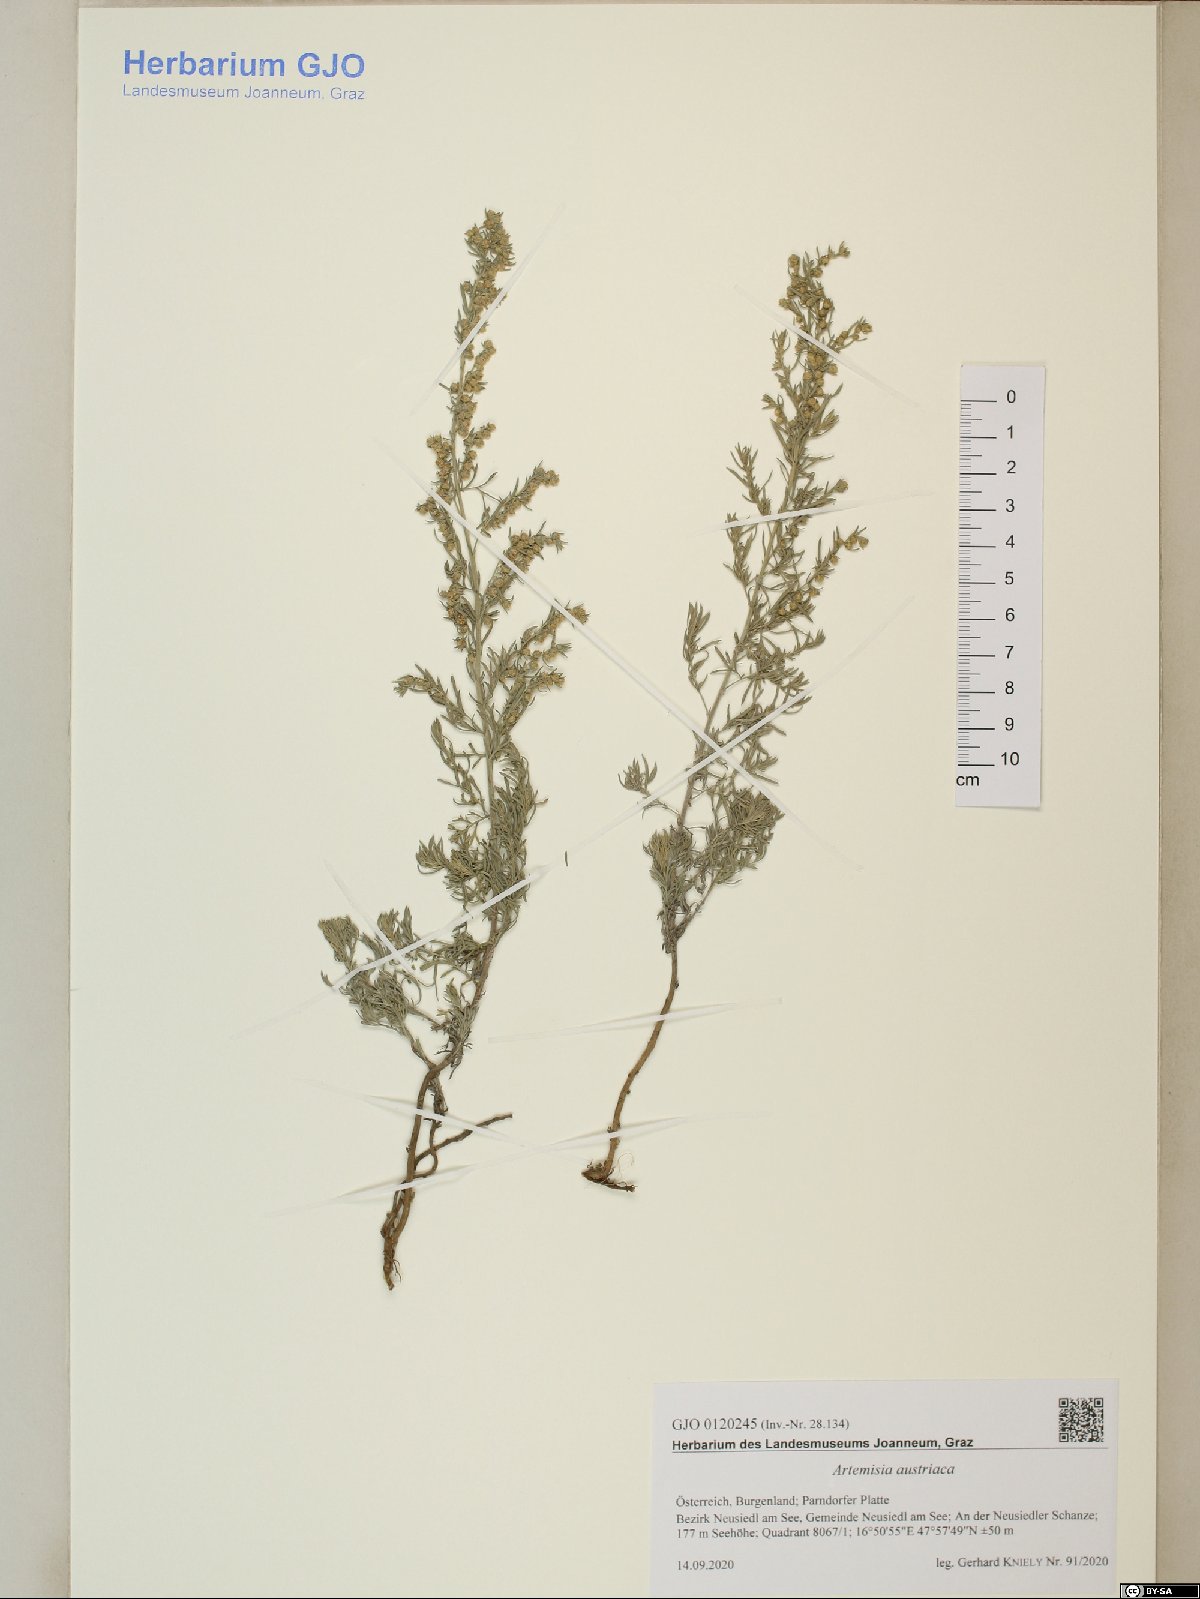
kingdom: Plantae
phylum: Tracheophyta
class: Magnoliopsida
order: Asterales
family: Asteraceae
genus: Artemisia
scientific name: Artemisia austriaca
